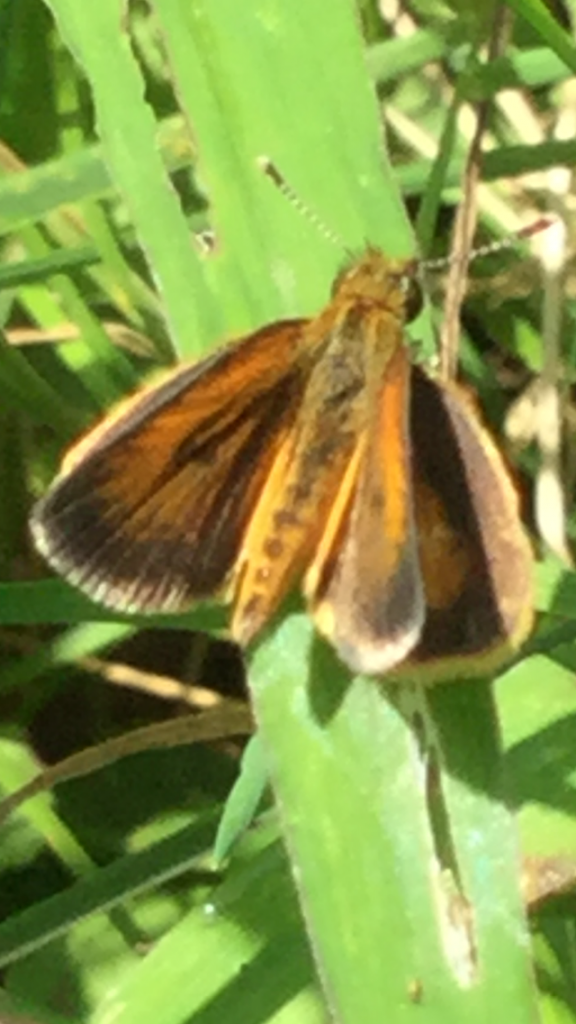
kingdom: Animalia
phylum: Arthropoda
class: Insecta
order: Lepidoptera
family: Hesperiidae
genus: Ancyloxypha
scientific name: Ancyloxypha numitor
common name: Least Skipper
